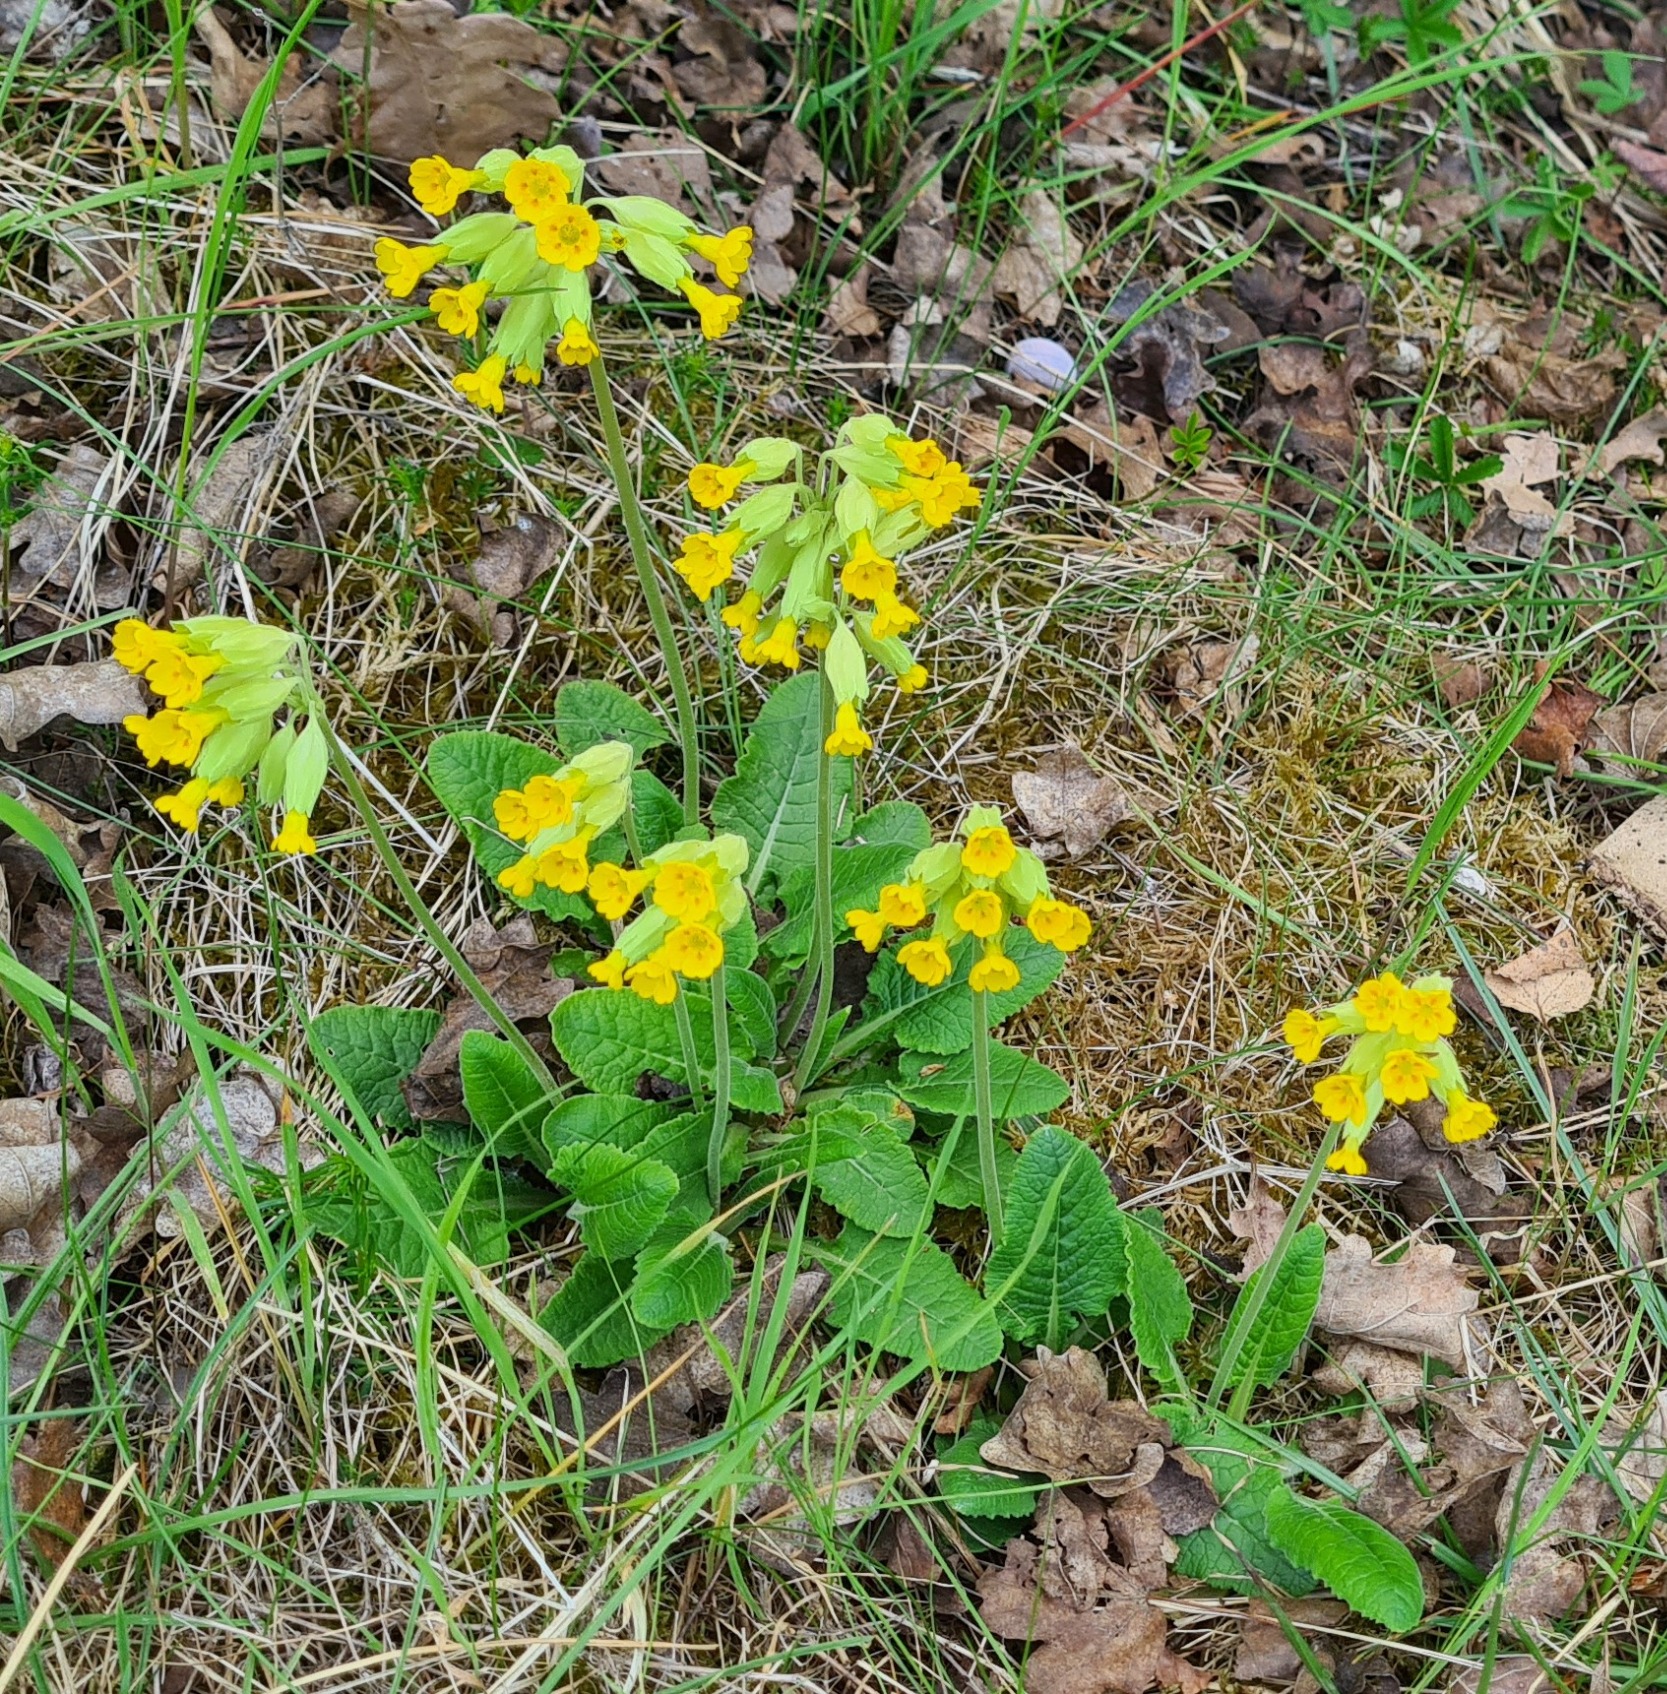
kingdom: Plantae
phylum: Tracheophyta
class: Magnoliopsida
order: Ericales
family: Primulaceae
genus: Primula
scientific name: Primula veris
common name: Hulkravet kodriver
